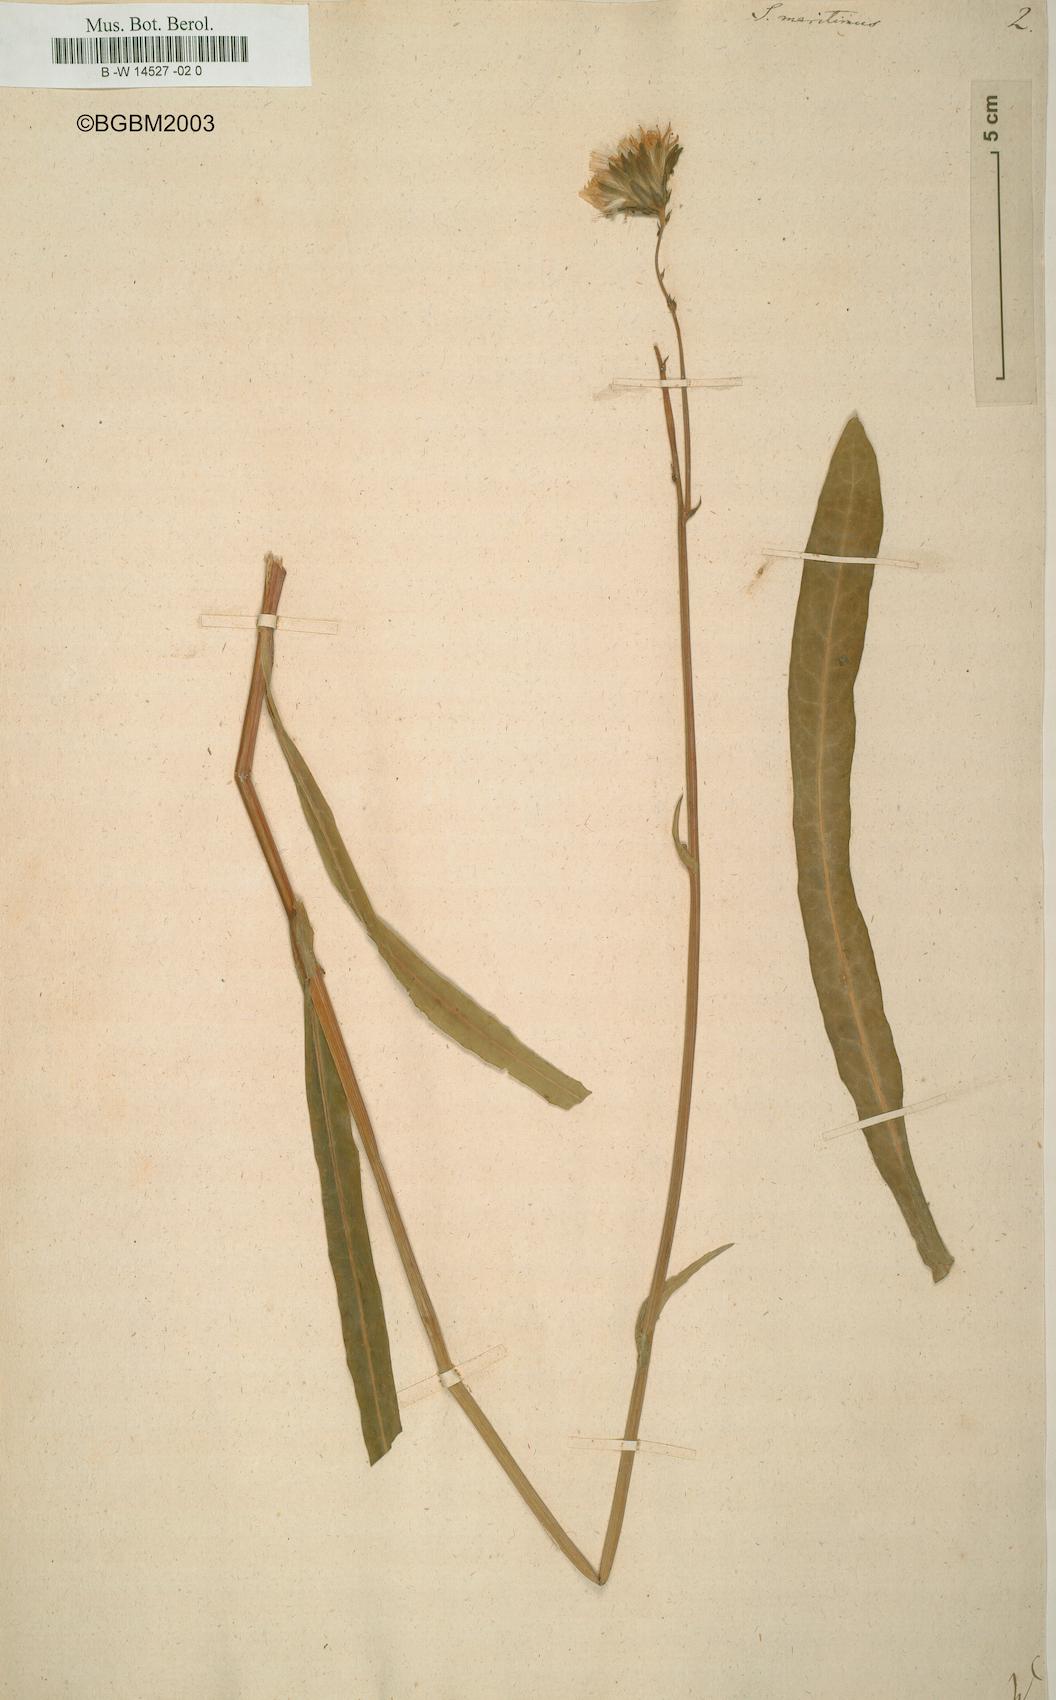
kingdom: Plantae
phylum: Tracheophyta
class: Magnoliopsida
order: Asterales
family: Asteraceae
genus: Sonchus
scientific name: Sonchus maritimus
